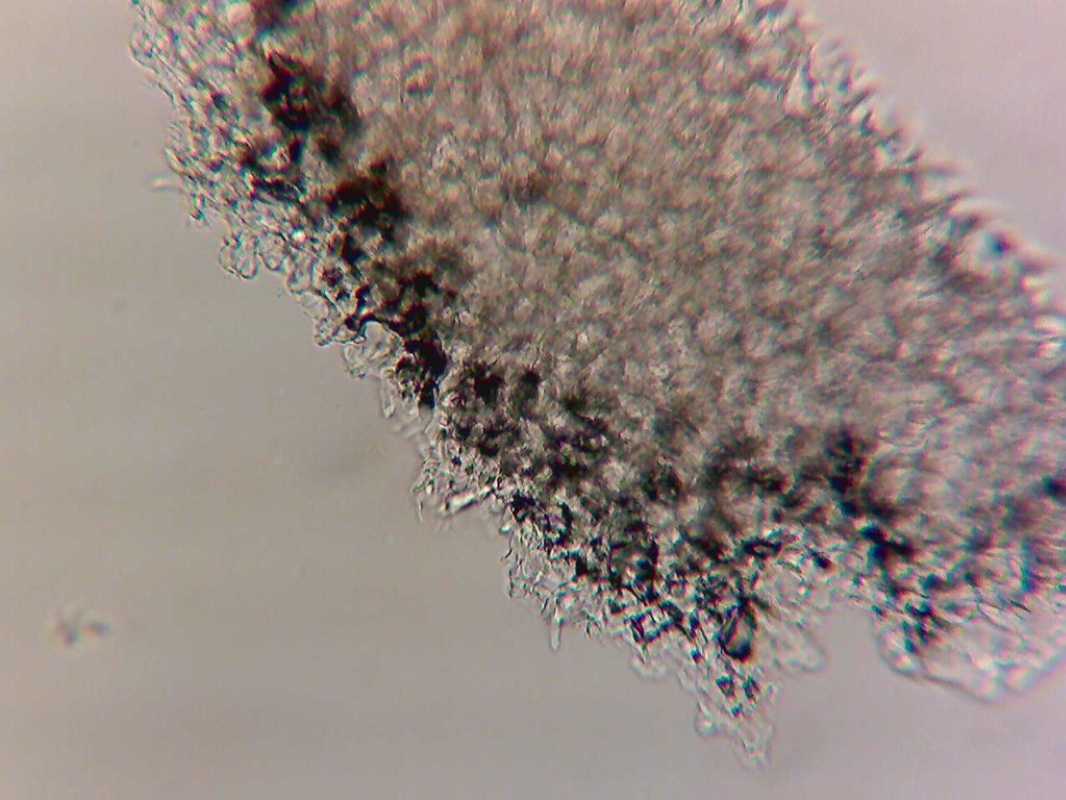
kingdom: Fungi
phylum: Basidiomycota
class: Agaricomycetes
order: Russulales
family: Russulaceae
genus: Lactifluus
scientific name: Lactifluus piperatus
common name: peber-mælkehat
